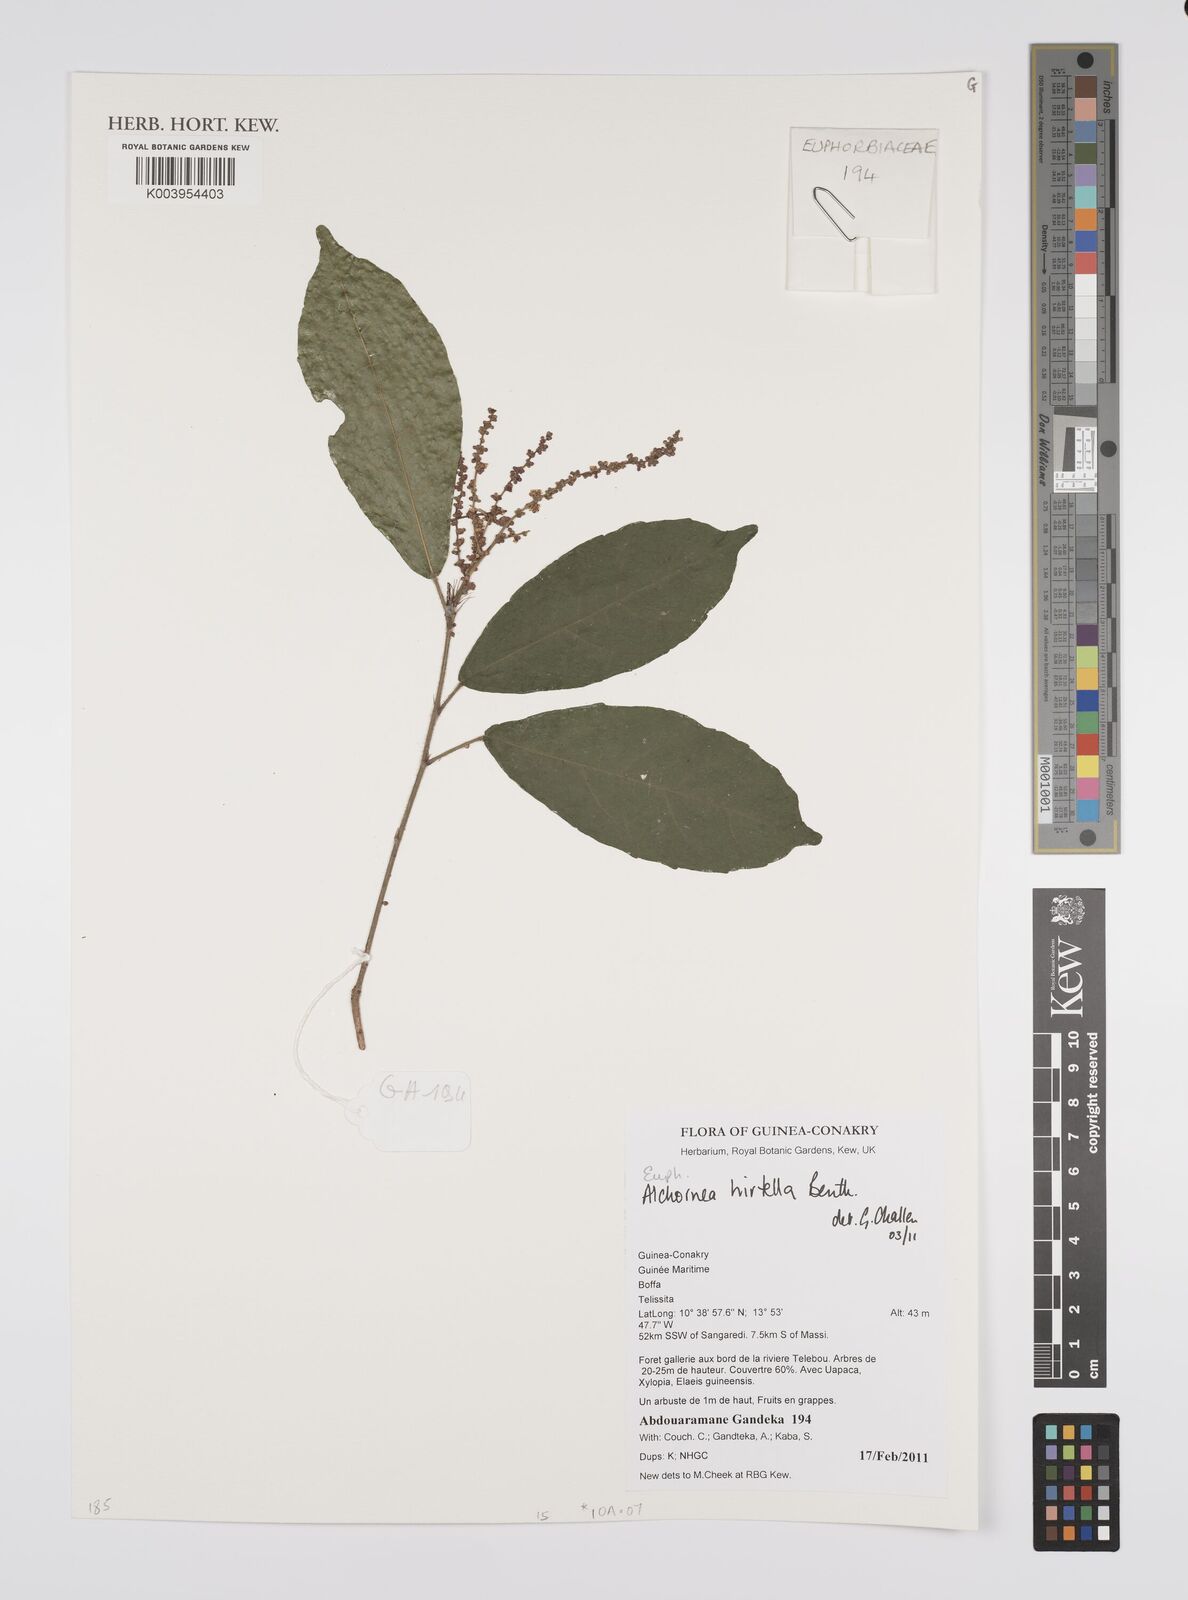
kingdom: Plantae
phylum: Tracheophyta
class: Magnoliopsida
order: Malpighiales
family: Euphorbiaceae
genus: Alchornea
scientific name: Alchornea hirtella
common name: Forest bead-string
